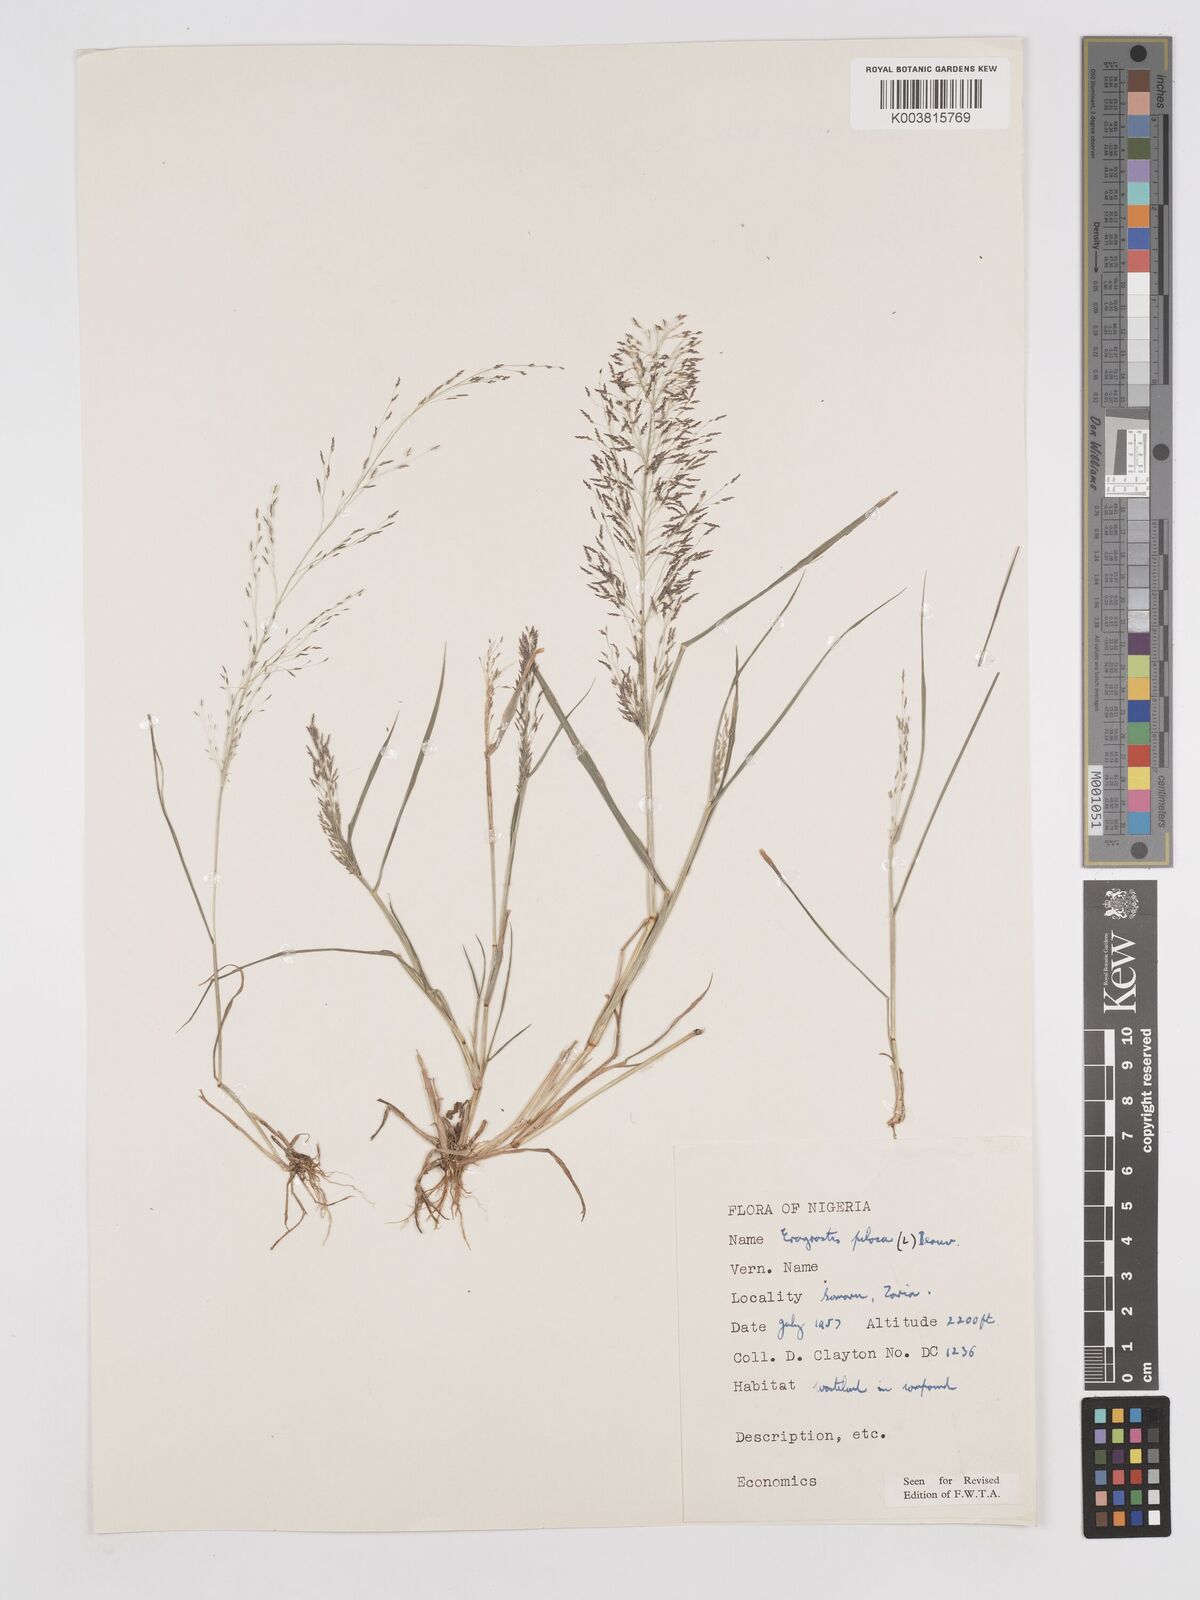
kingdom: Plantae
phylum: Tracheophyta
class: Liliopsida
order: Poales
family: Poaceae
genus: Eragrostis
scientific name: Eragrostis pilosa
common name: Indian lovegrass
